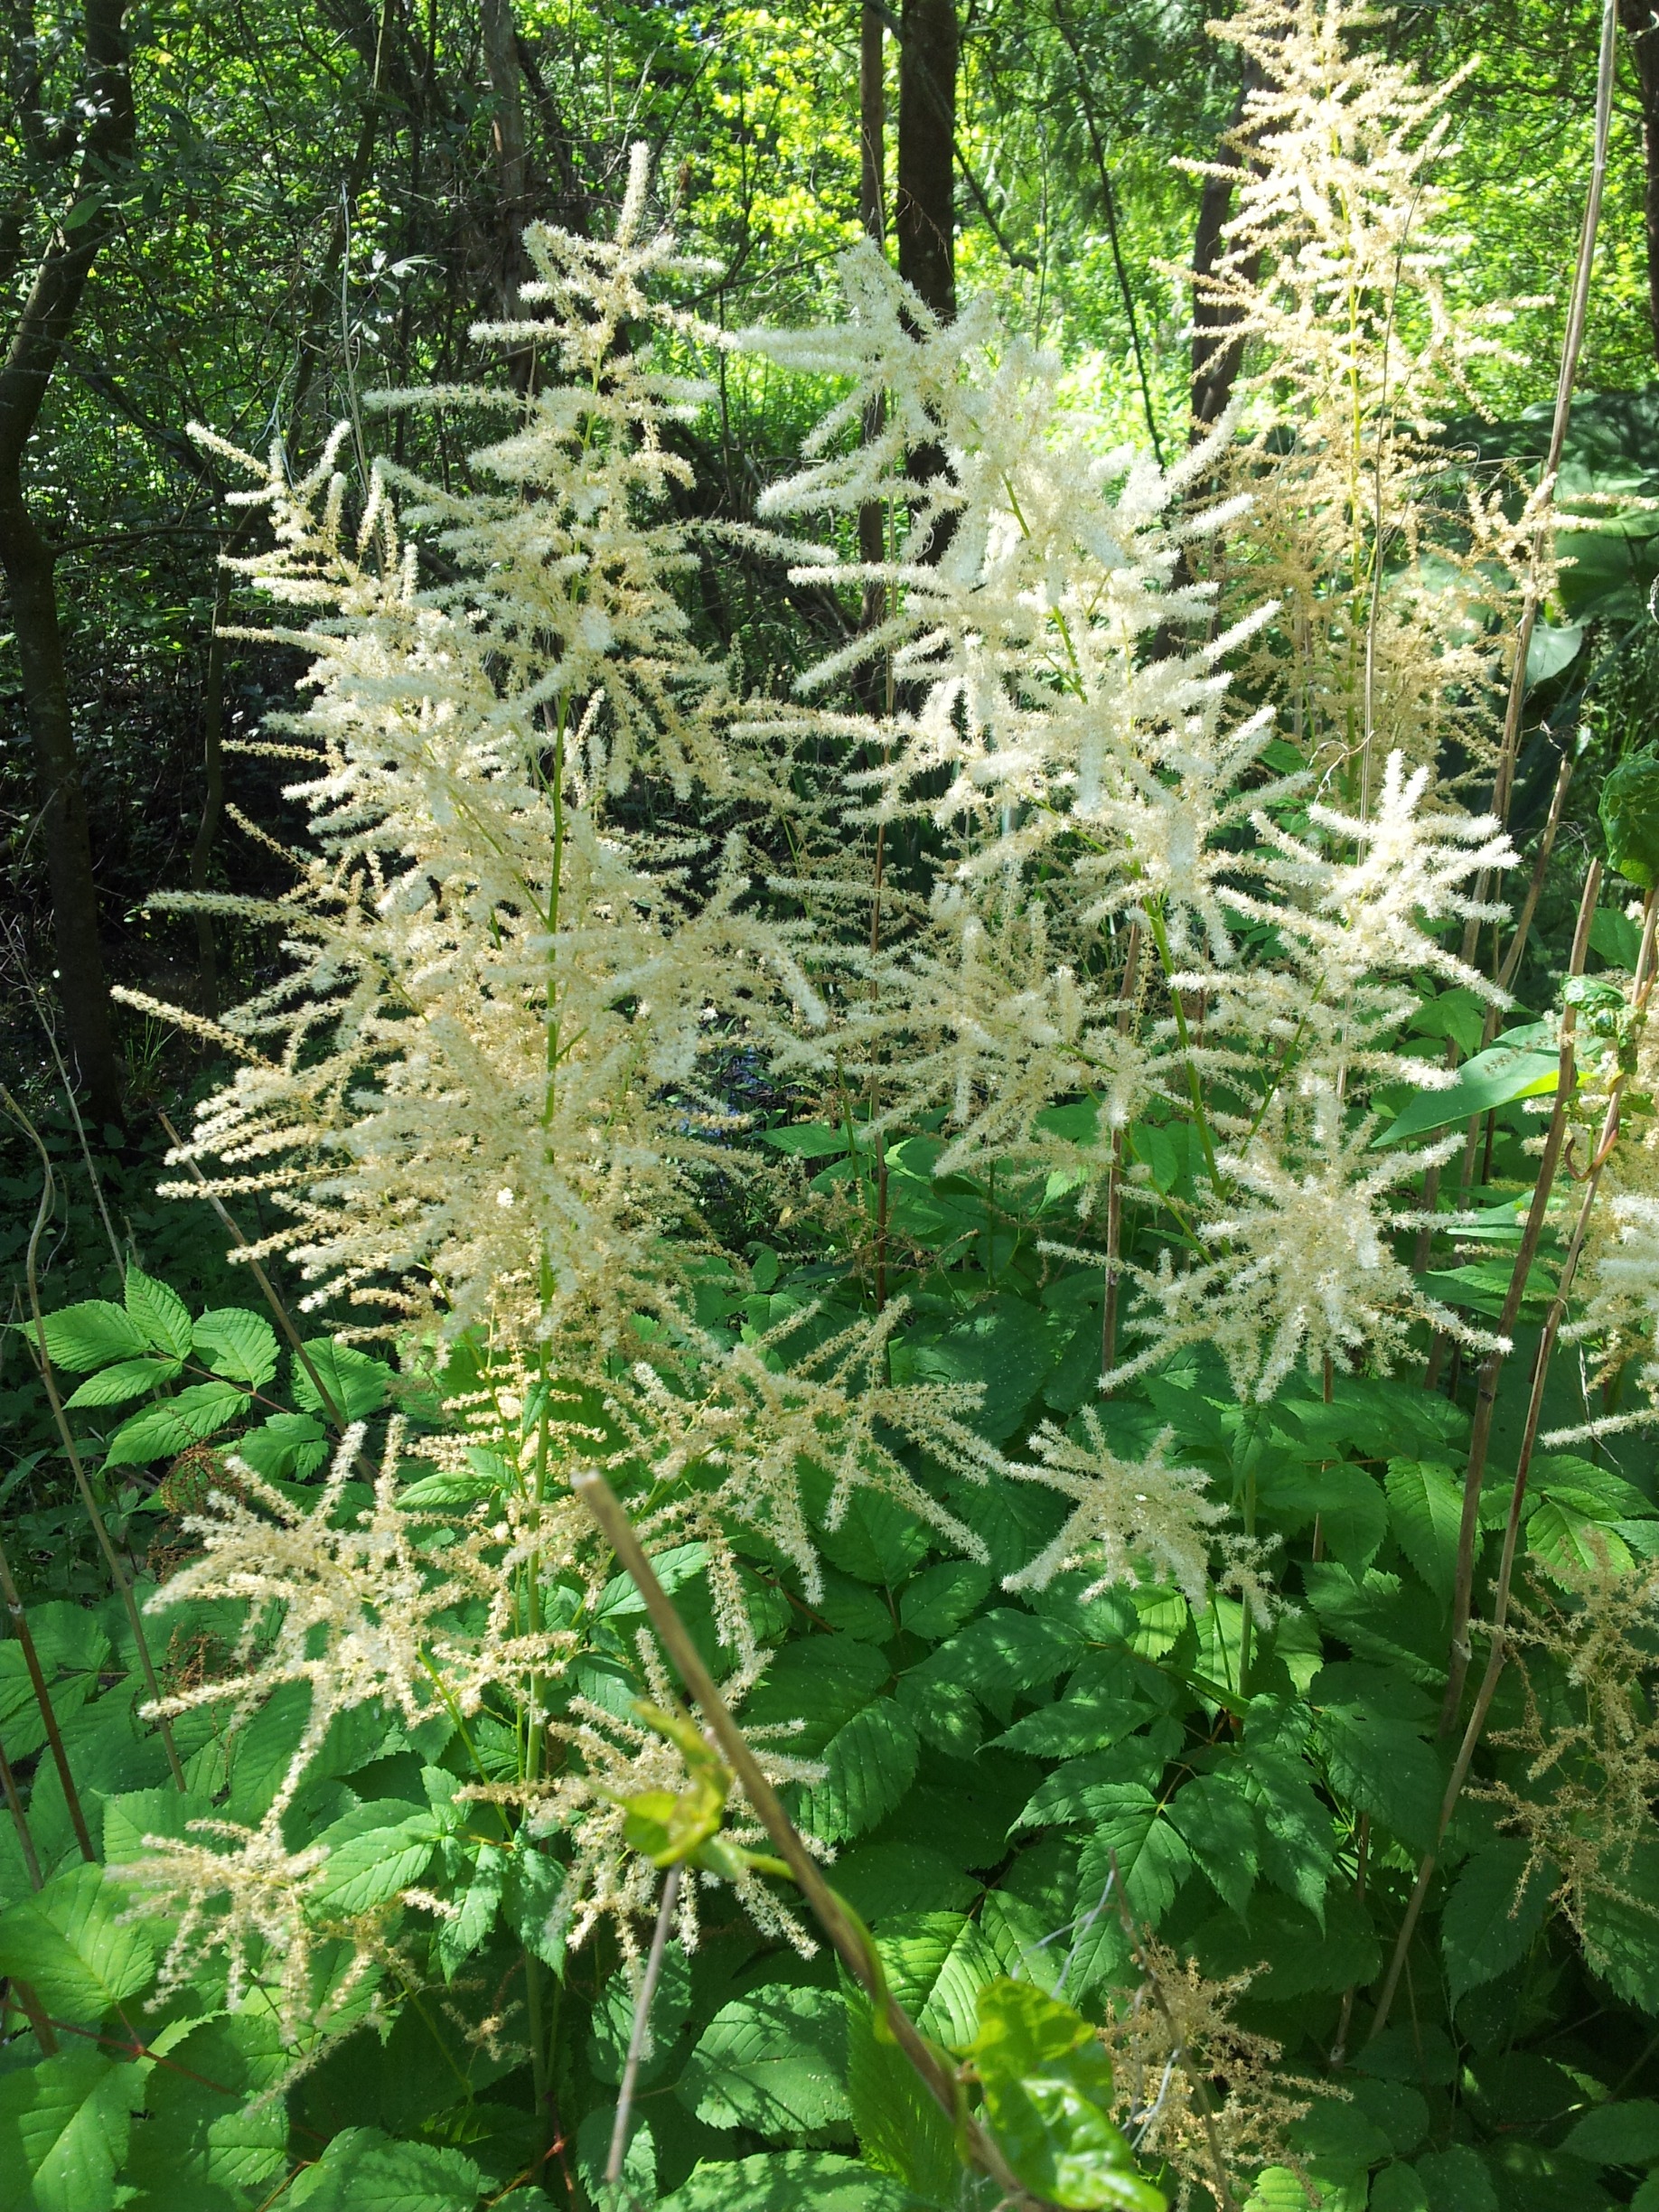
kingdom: Plantae
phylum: Tracheophyta
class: Magnoliopsida
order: Rosales
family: Rosaceae
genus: Aruncus
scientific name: Aruncus dioicus
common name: Fjerbusk
